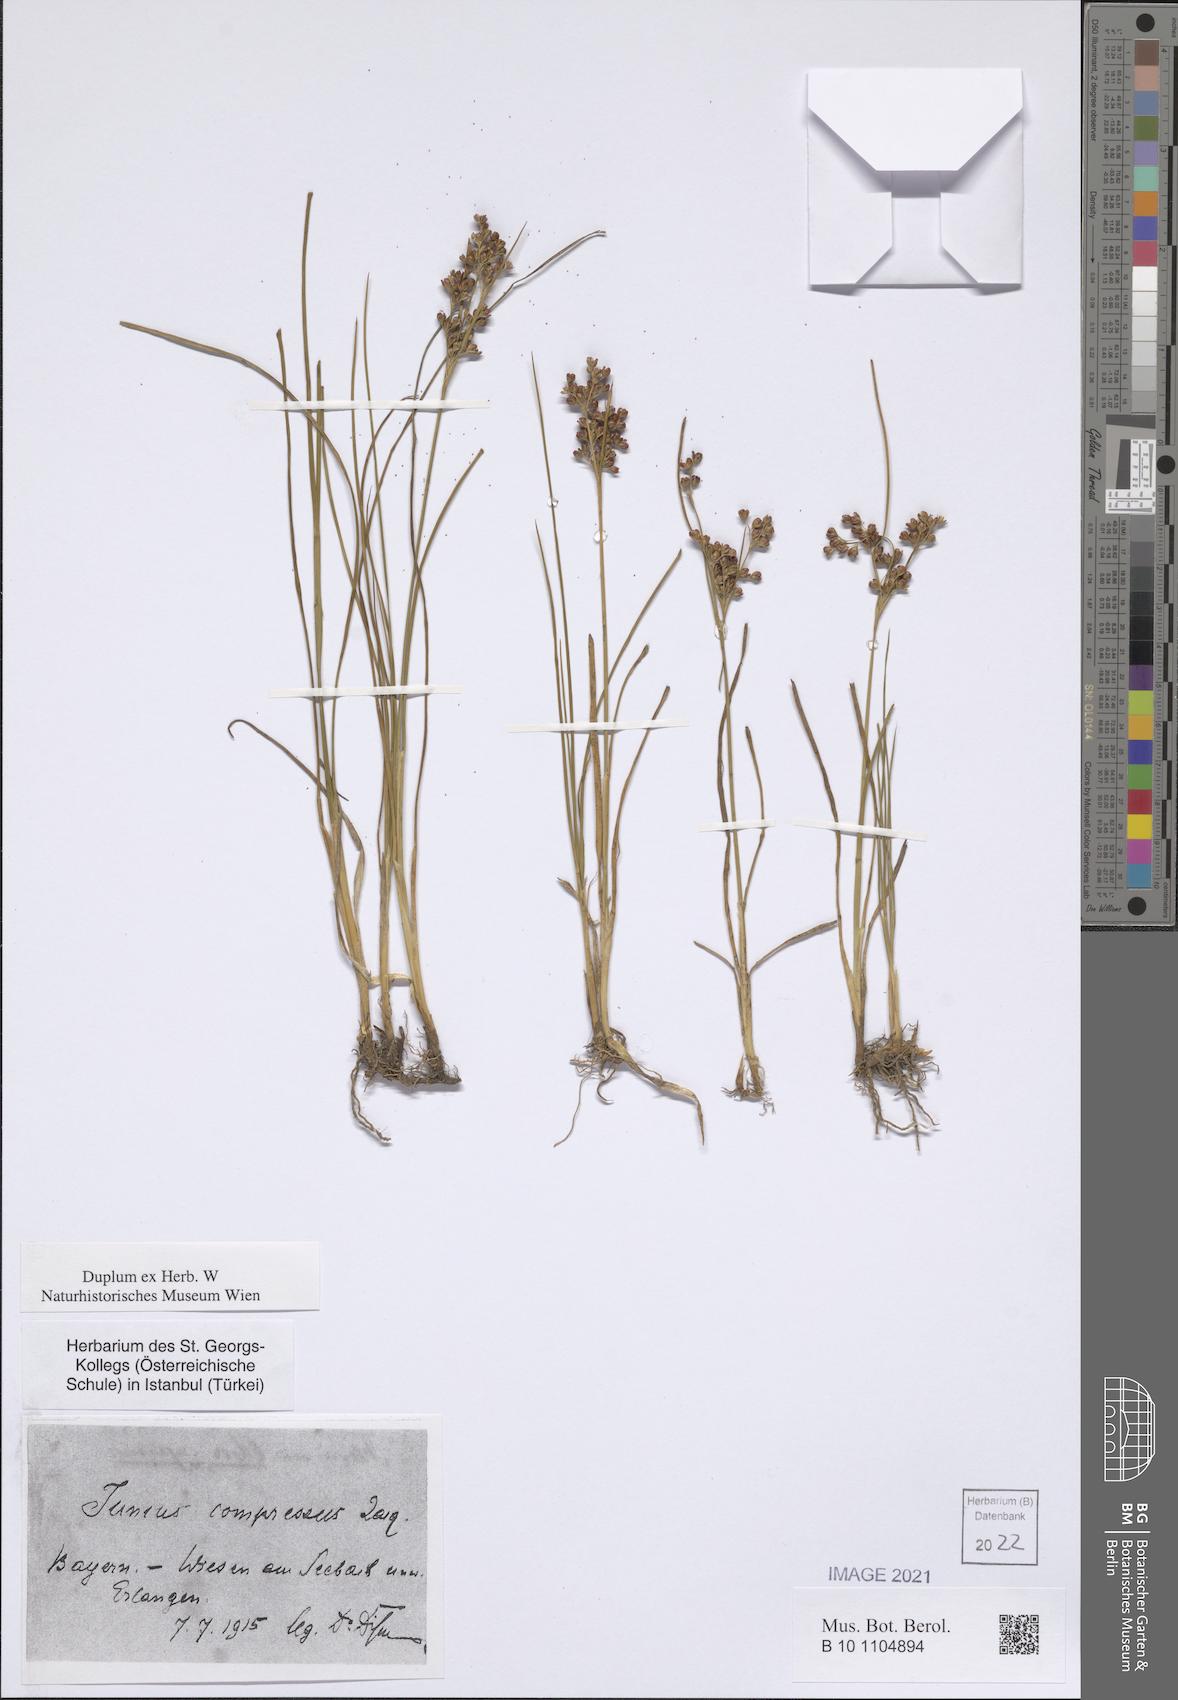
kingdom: Plantae
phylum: Tracheophyta
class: Liliopsida
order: Poales
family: Juncaceae
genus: Juncus
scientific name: Juncus compressus
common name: Round-fruited rush
